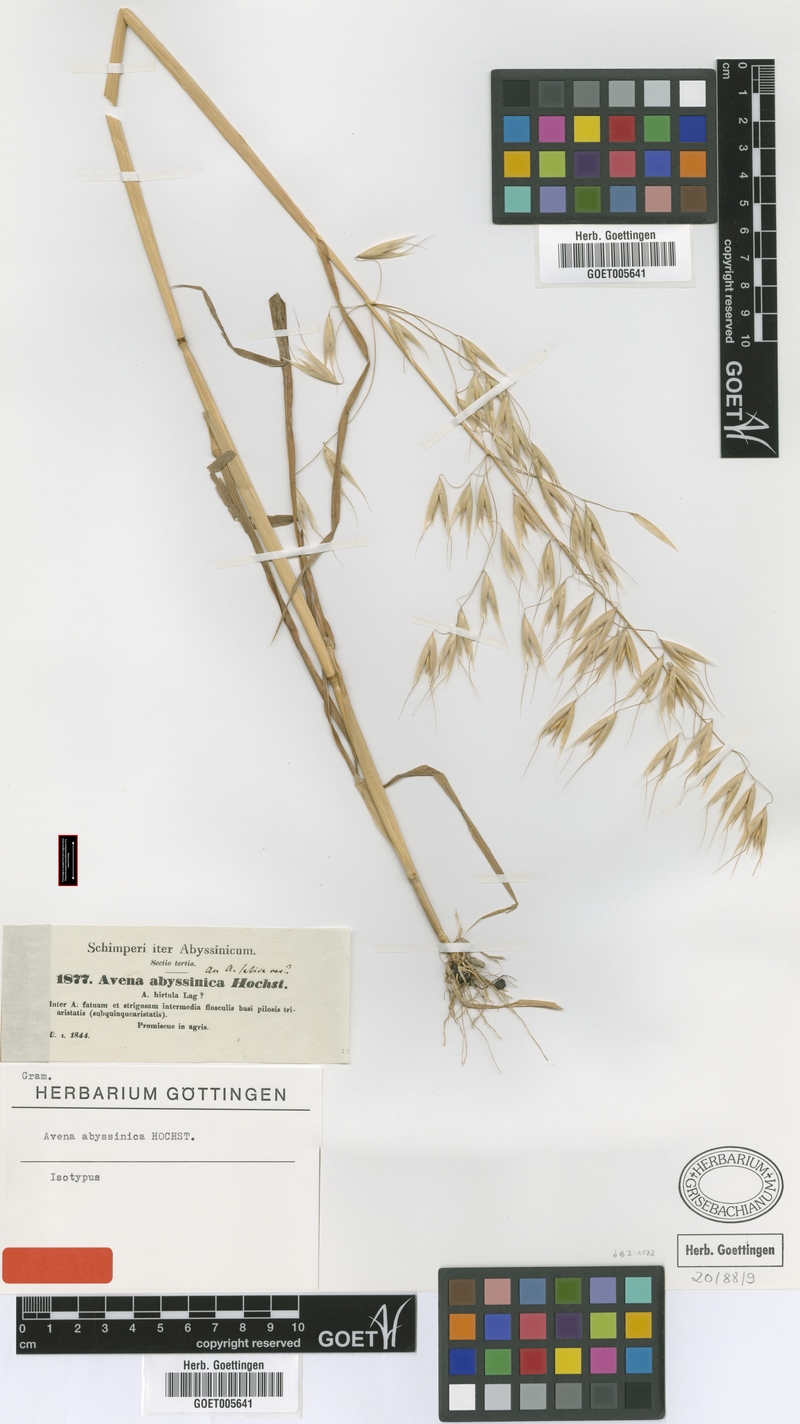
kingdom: Plantae
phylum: Tracheophyta
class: Liliopsida
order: Poales
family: Poaceae
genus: Avena
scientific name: Avena abyssinica
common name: Ethiopian oat
